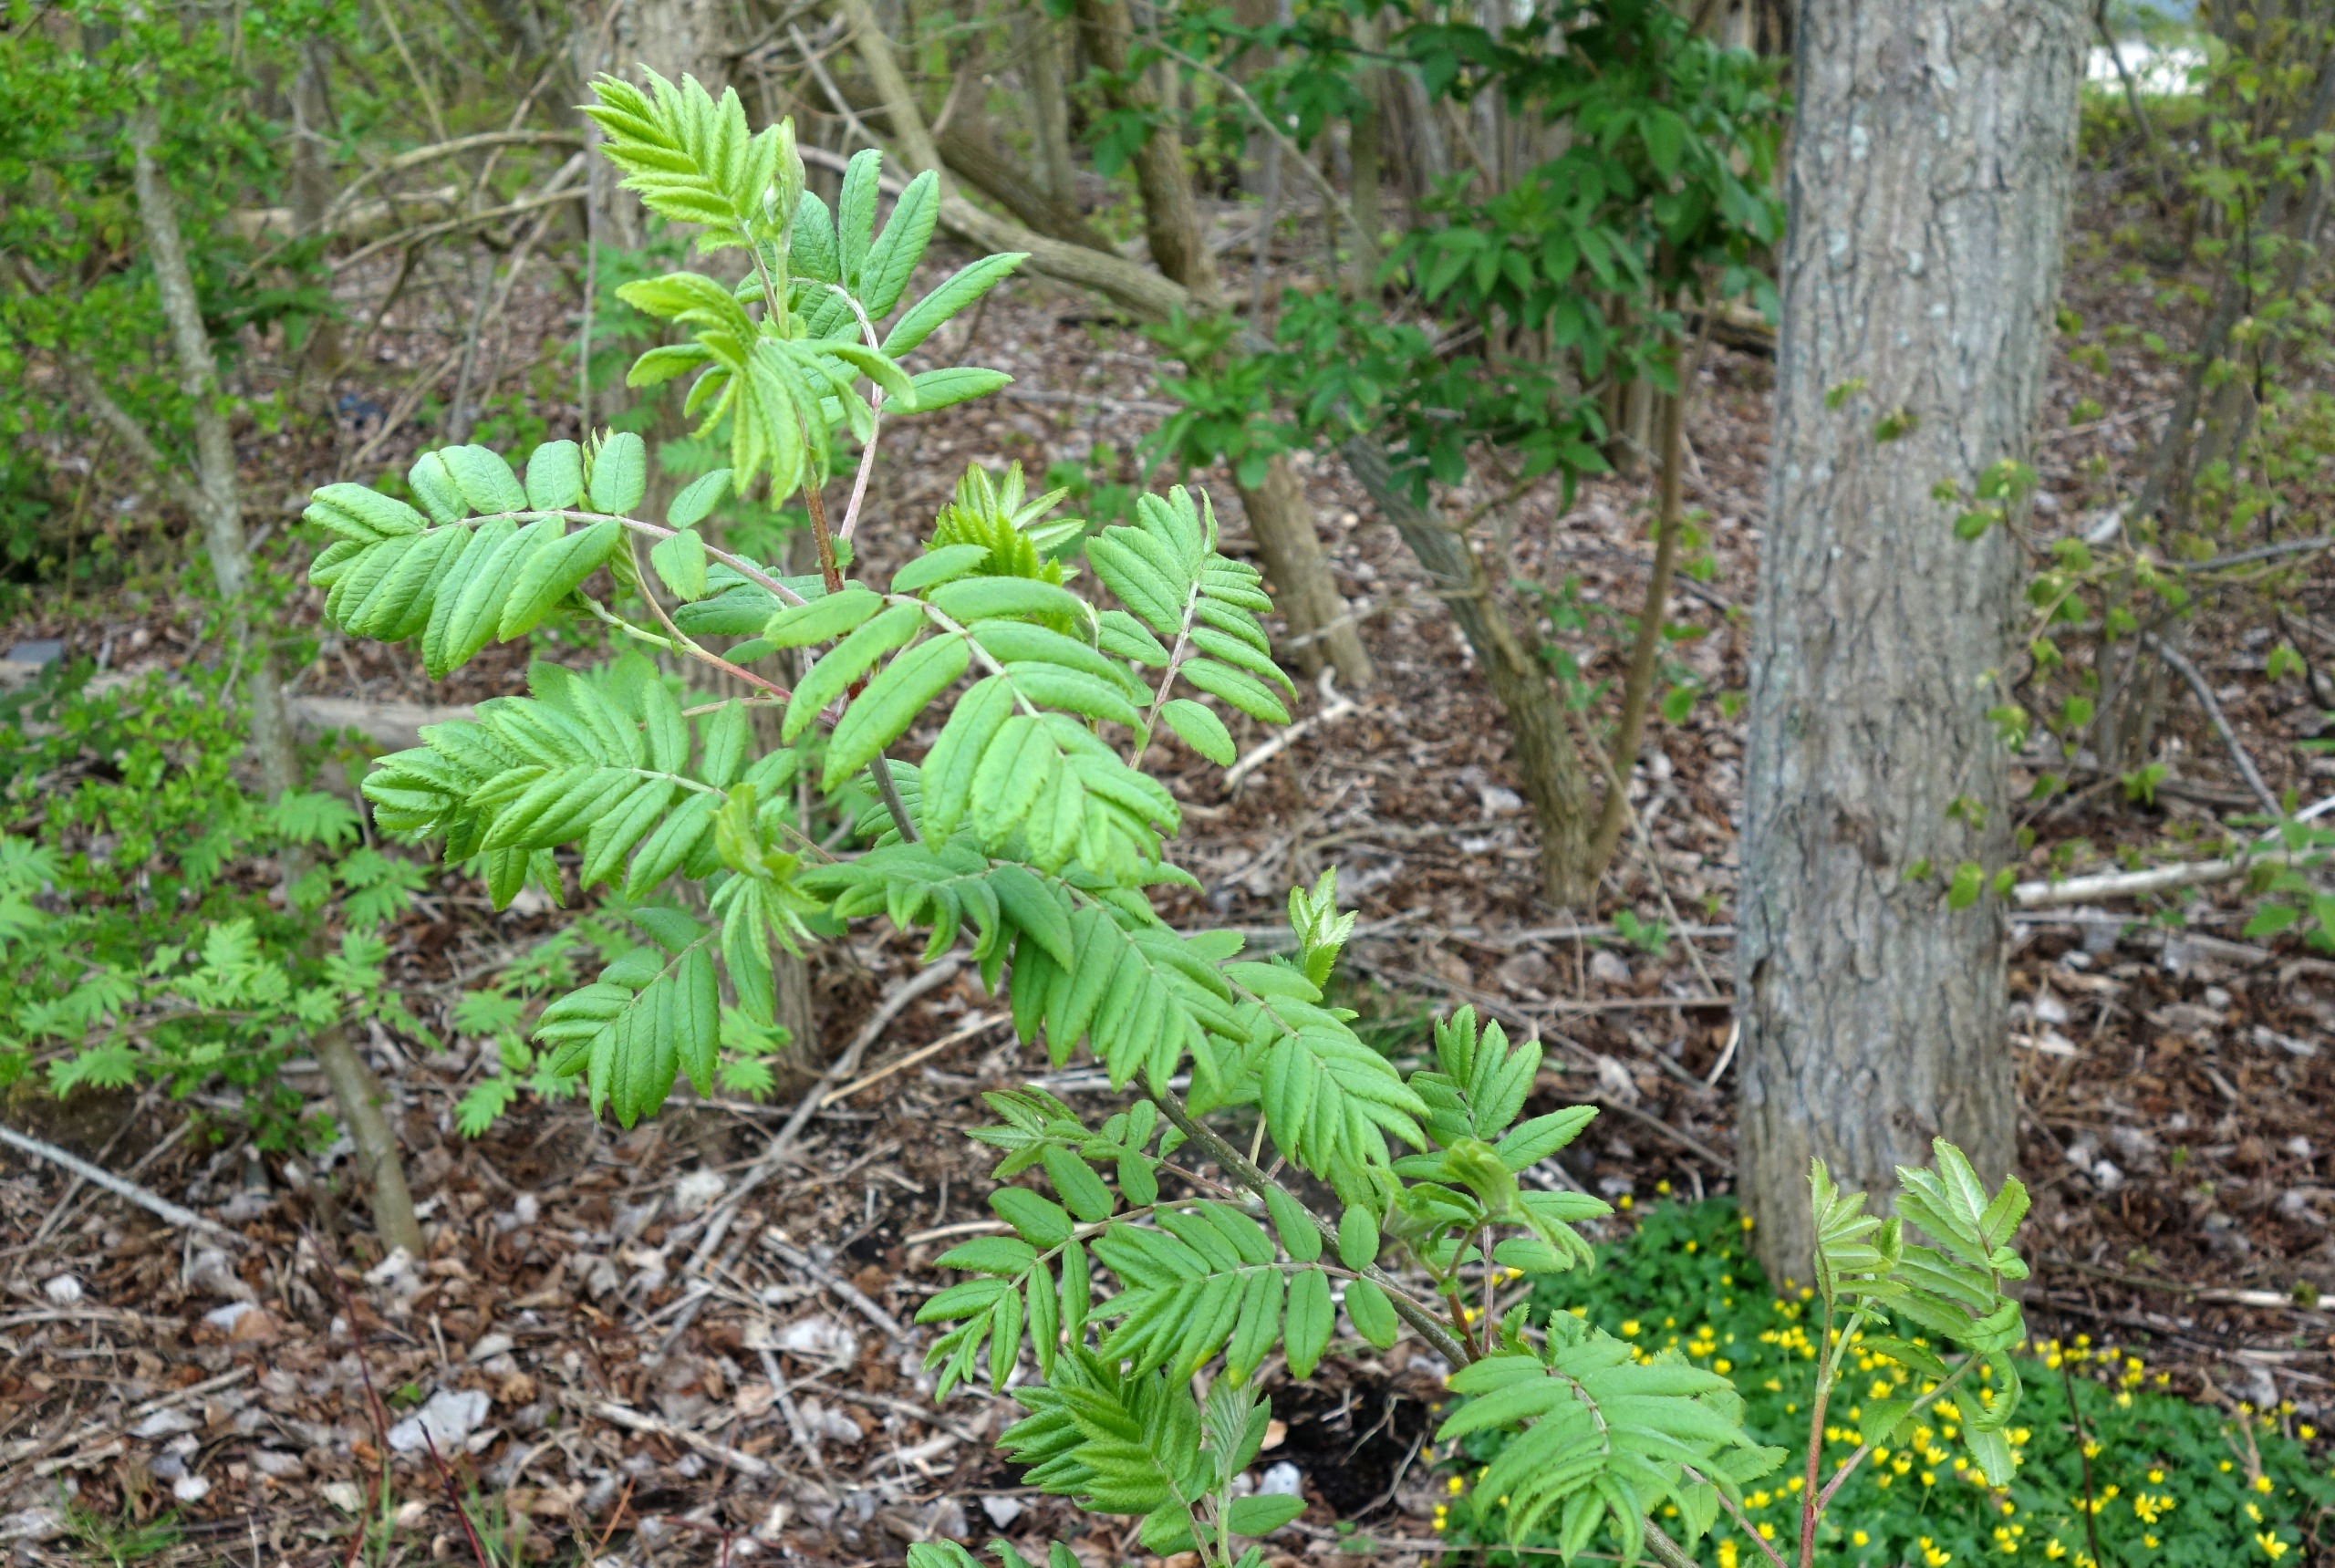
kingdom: Plantae
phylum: Tracheophyta
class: Magnoliopsida
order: Rosales
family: Rosaceae
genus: Sorbus
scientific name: Sorbus aucuparia
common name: Almindelig røn
